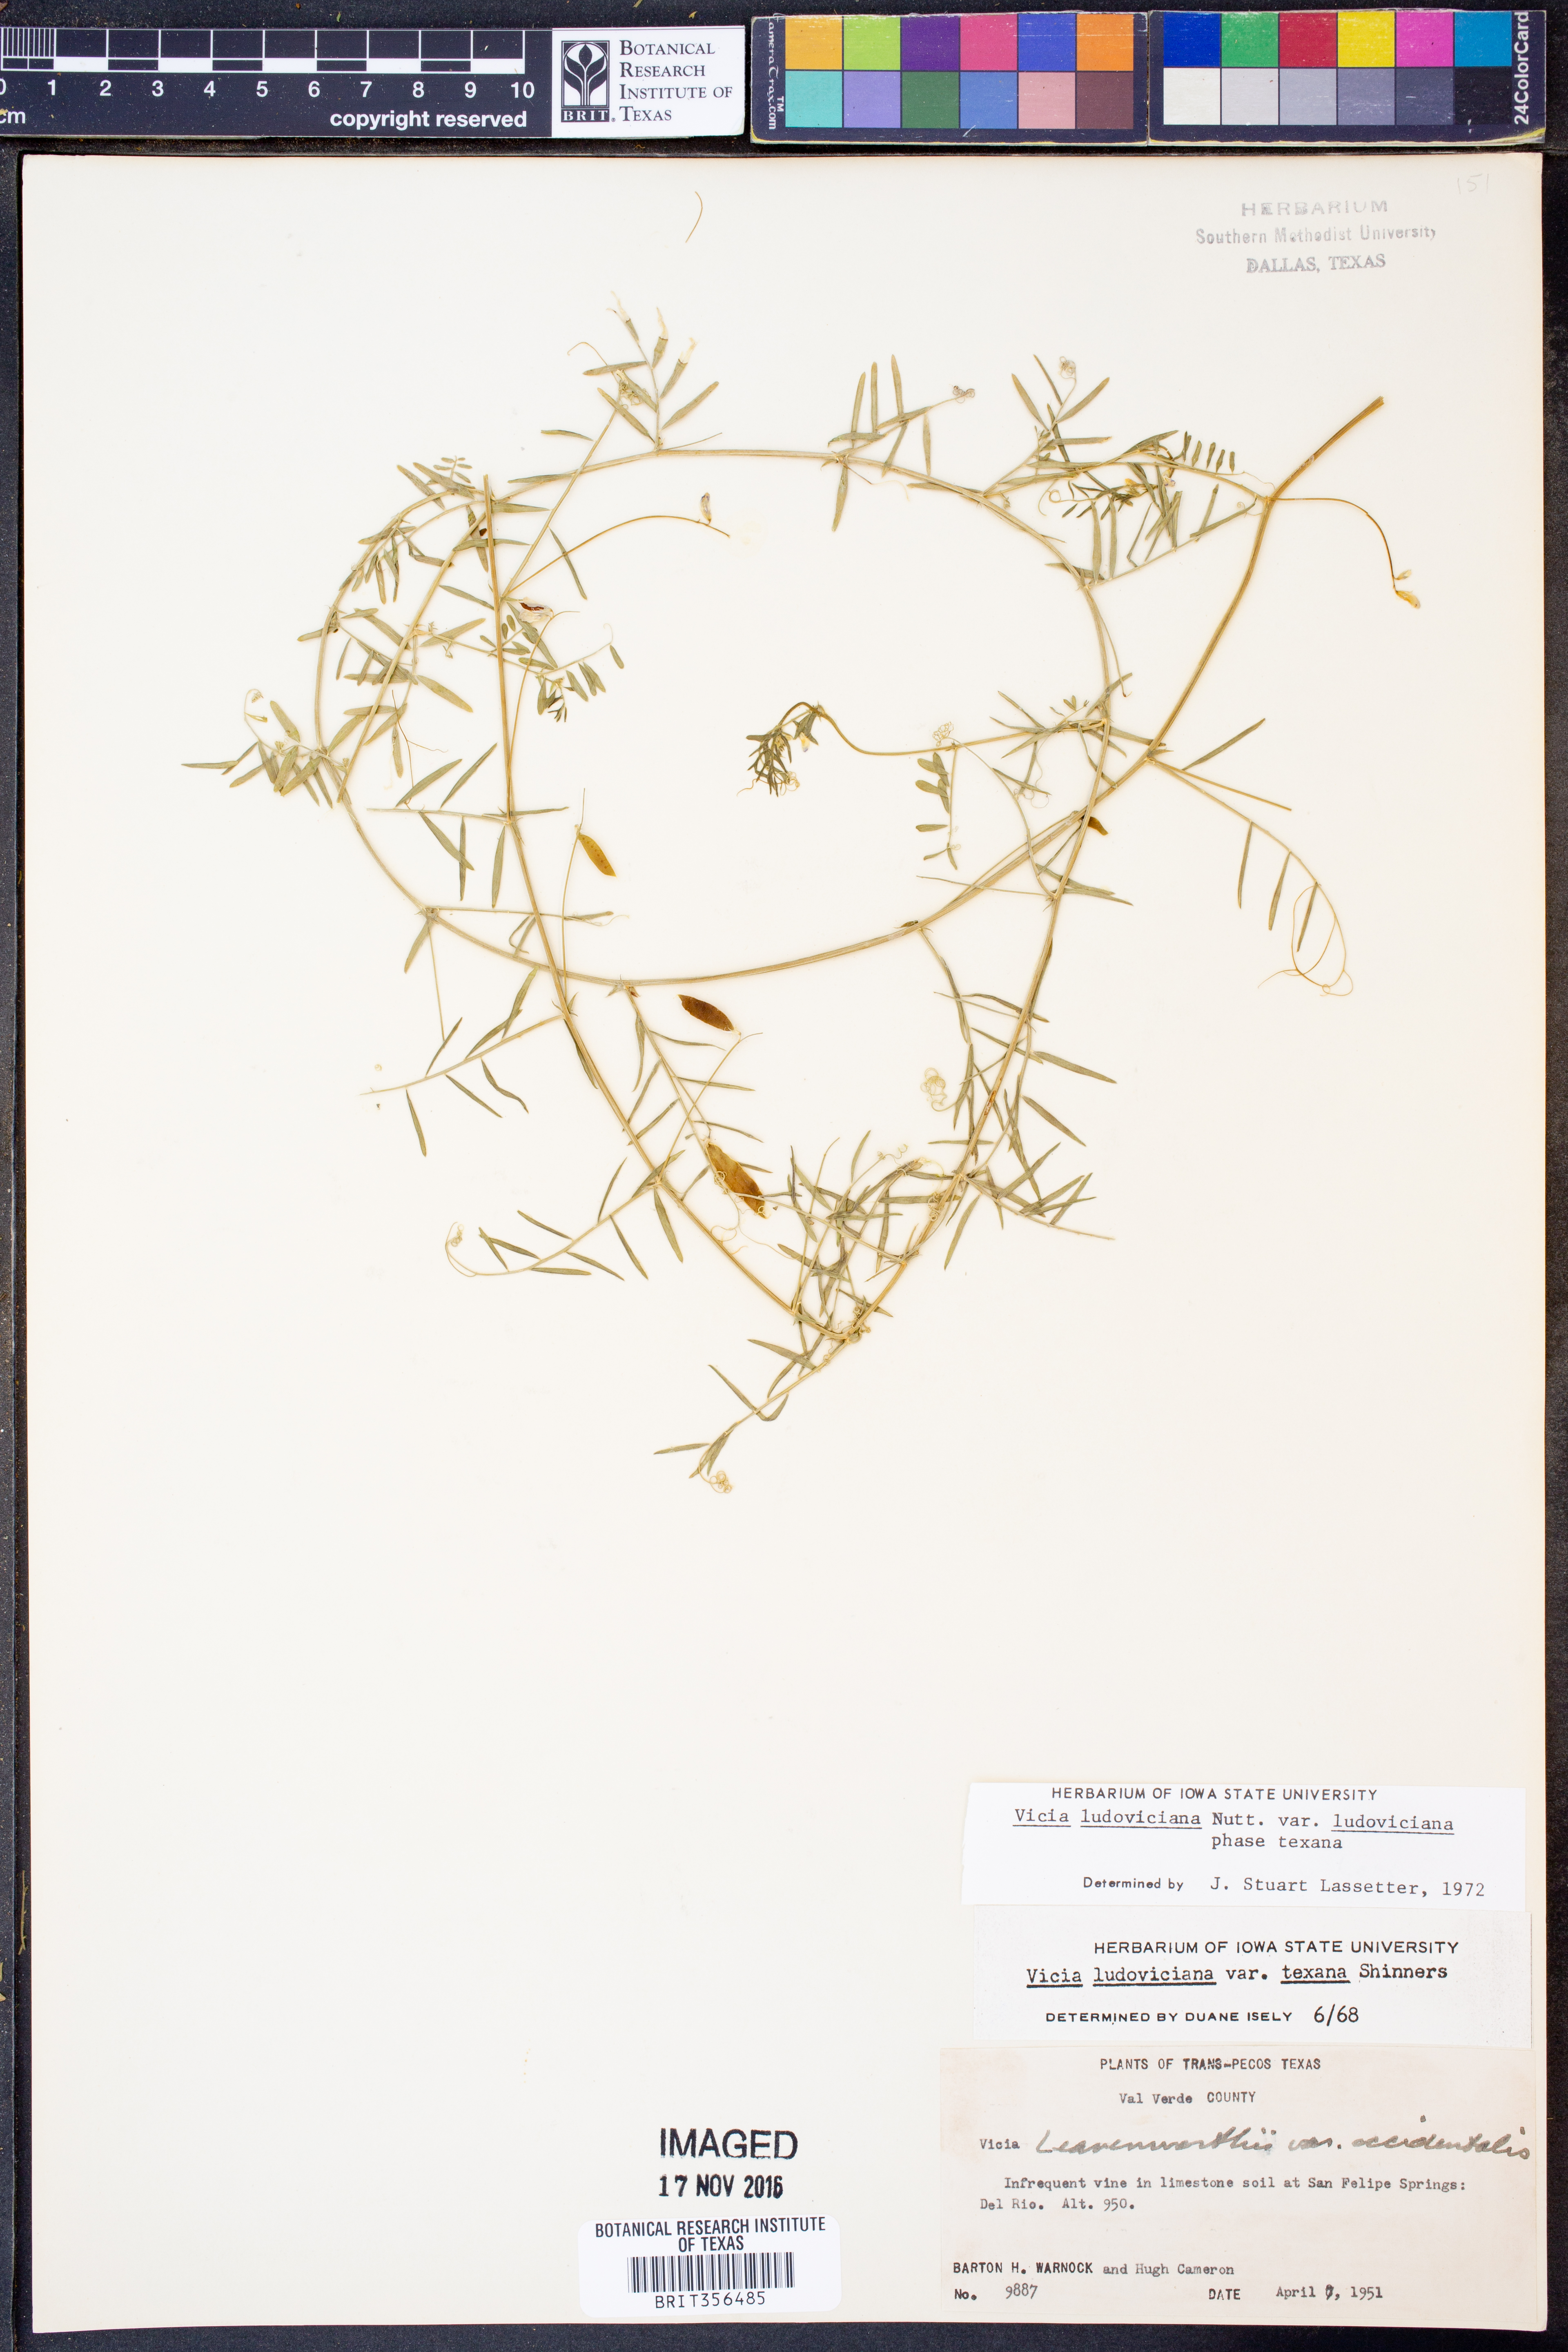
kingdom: Plantae
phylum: Tracheophyta
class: Magnoliopsida
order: Fabales
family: Fabaceae
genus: Vicia
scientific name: Vicia ludoviciana
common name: Louisiana vetch
